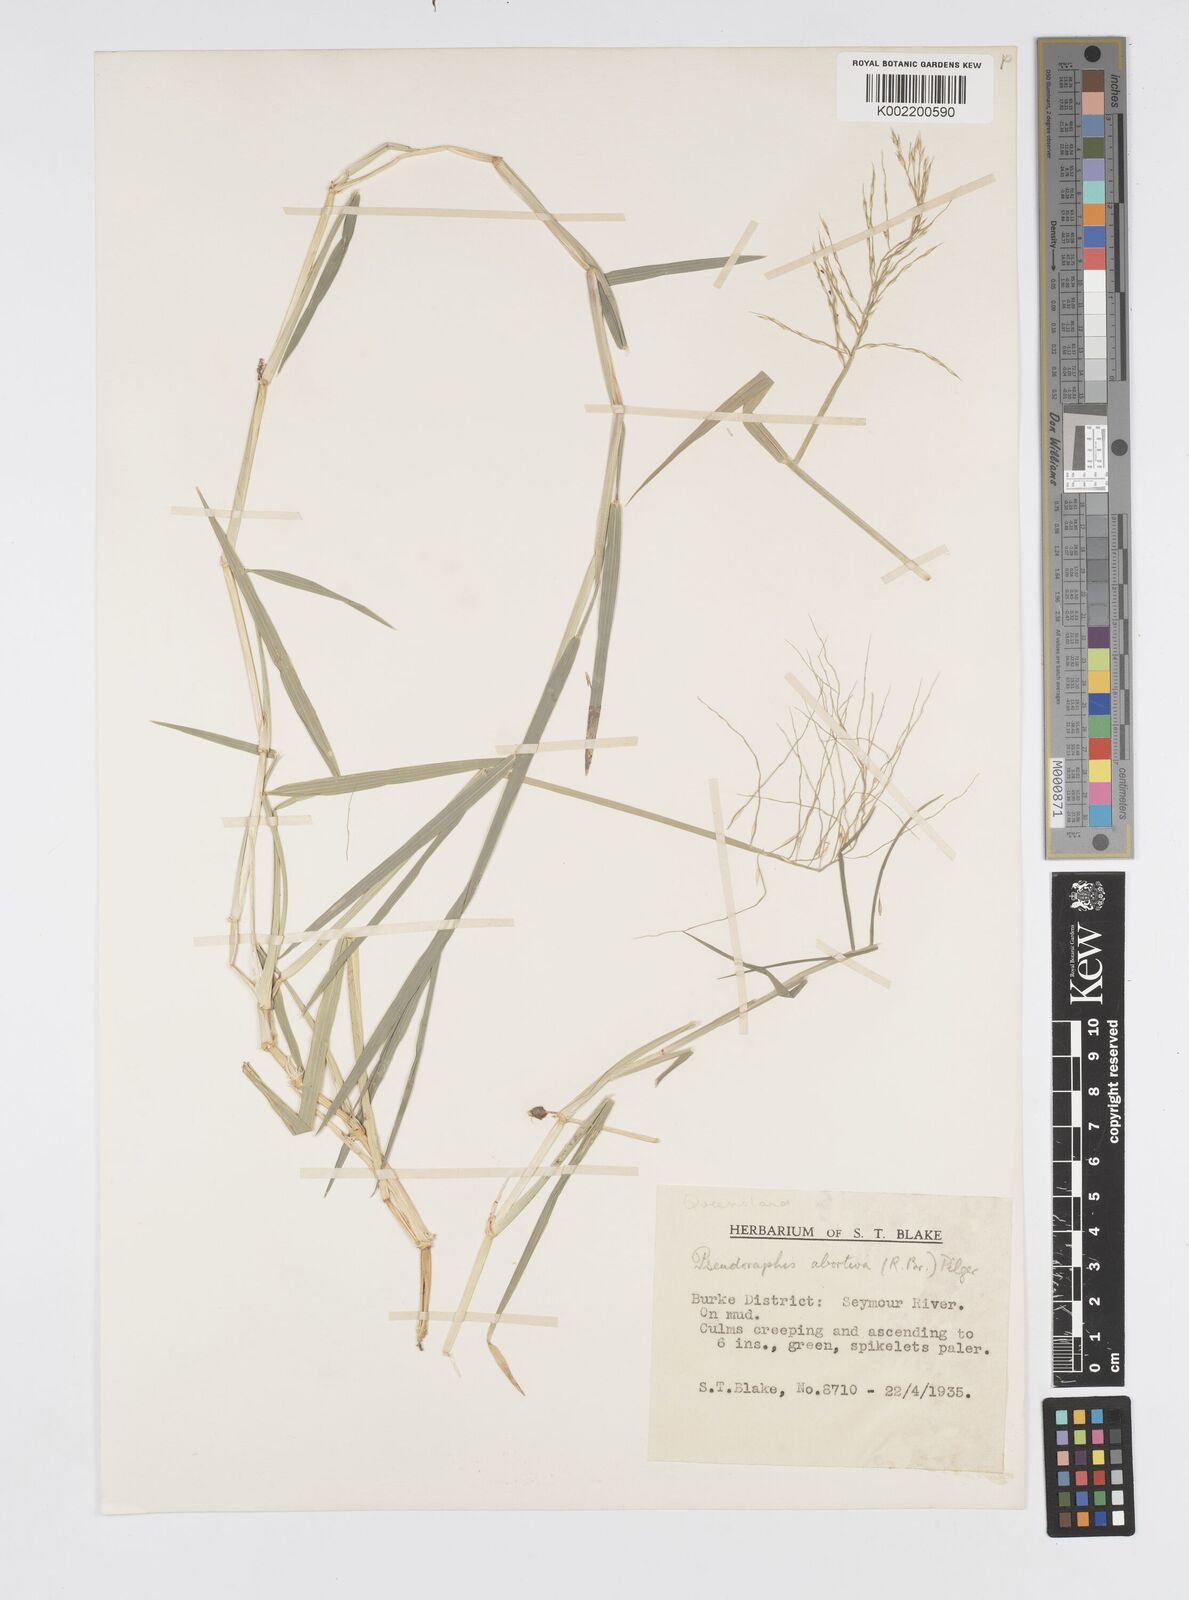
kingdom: Plantae
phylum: Tracheophyta
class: Liliopsida
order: Poales
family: Poaceae
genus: Pseudoraphis
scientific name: Pseudoraphis spinescens
